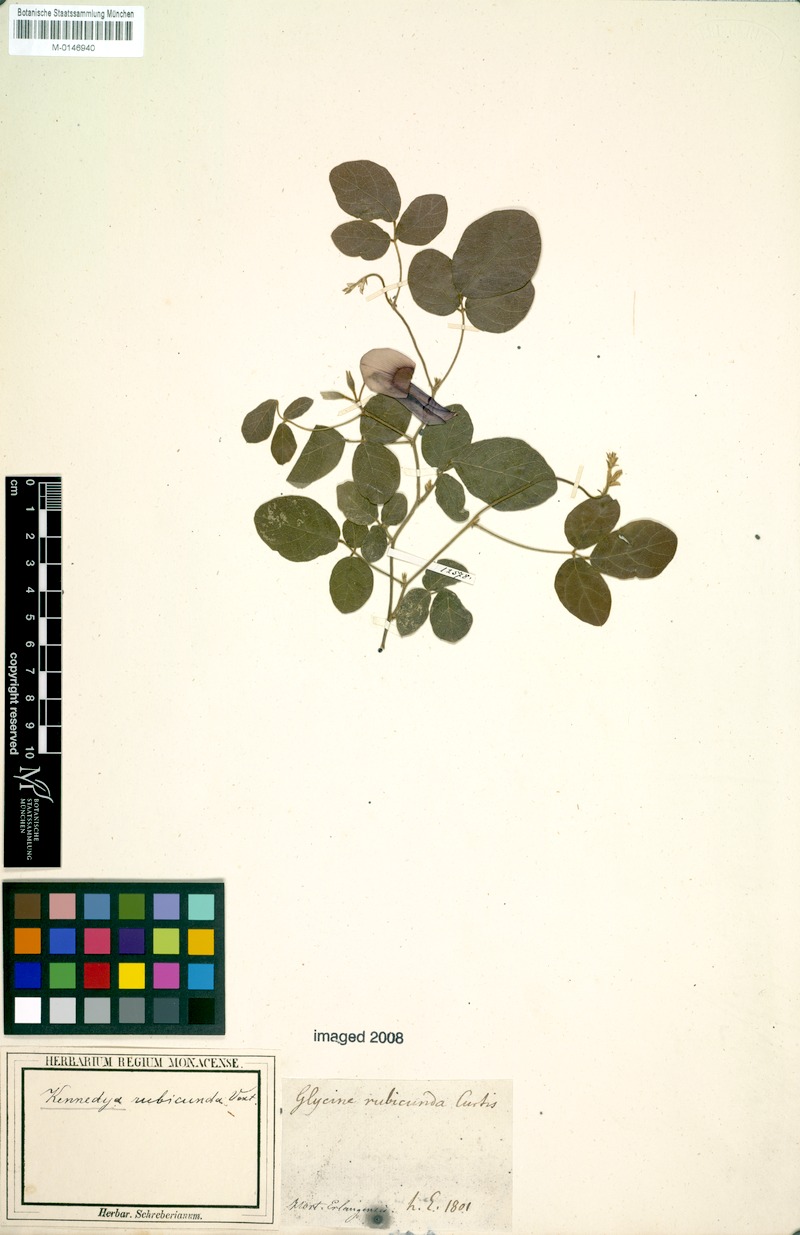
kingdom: Plantae
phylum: Tracheophyta
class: Magnoliopsida
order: Fabales
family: Fabaceae
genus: Kennedia
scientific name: Kennedia rubicunda
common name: Red kennedy-pea
